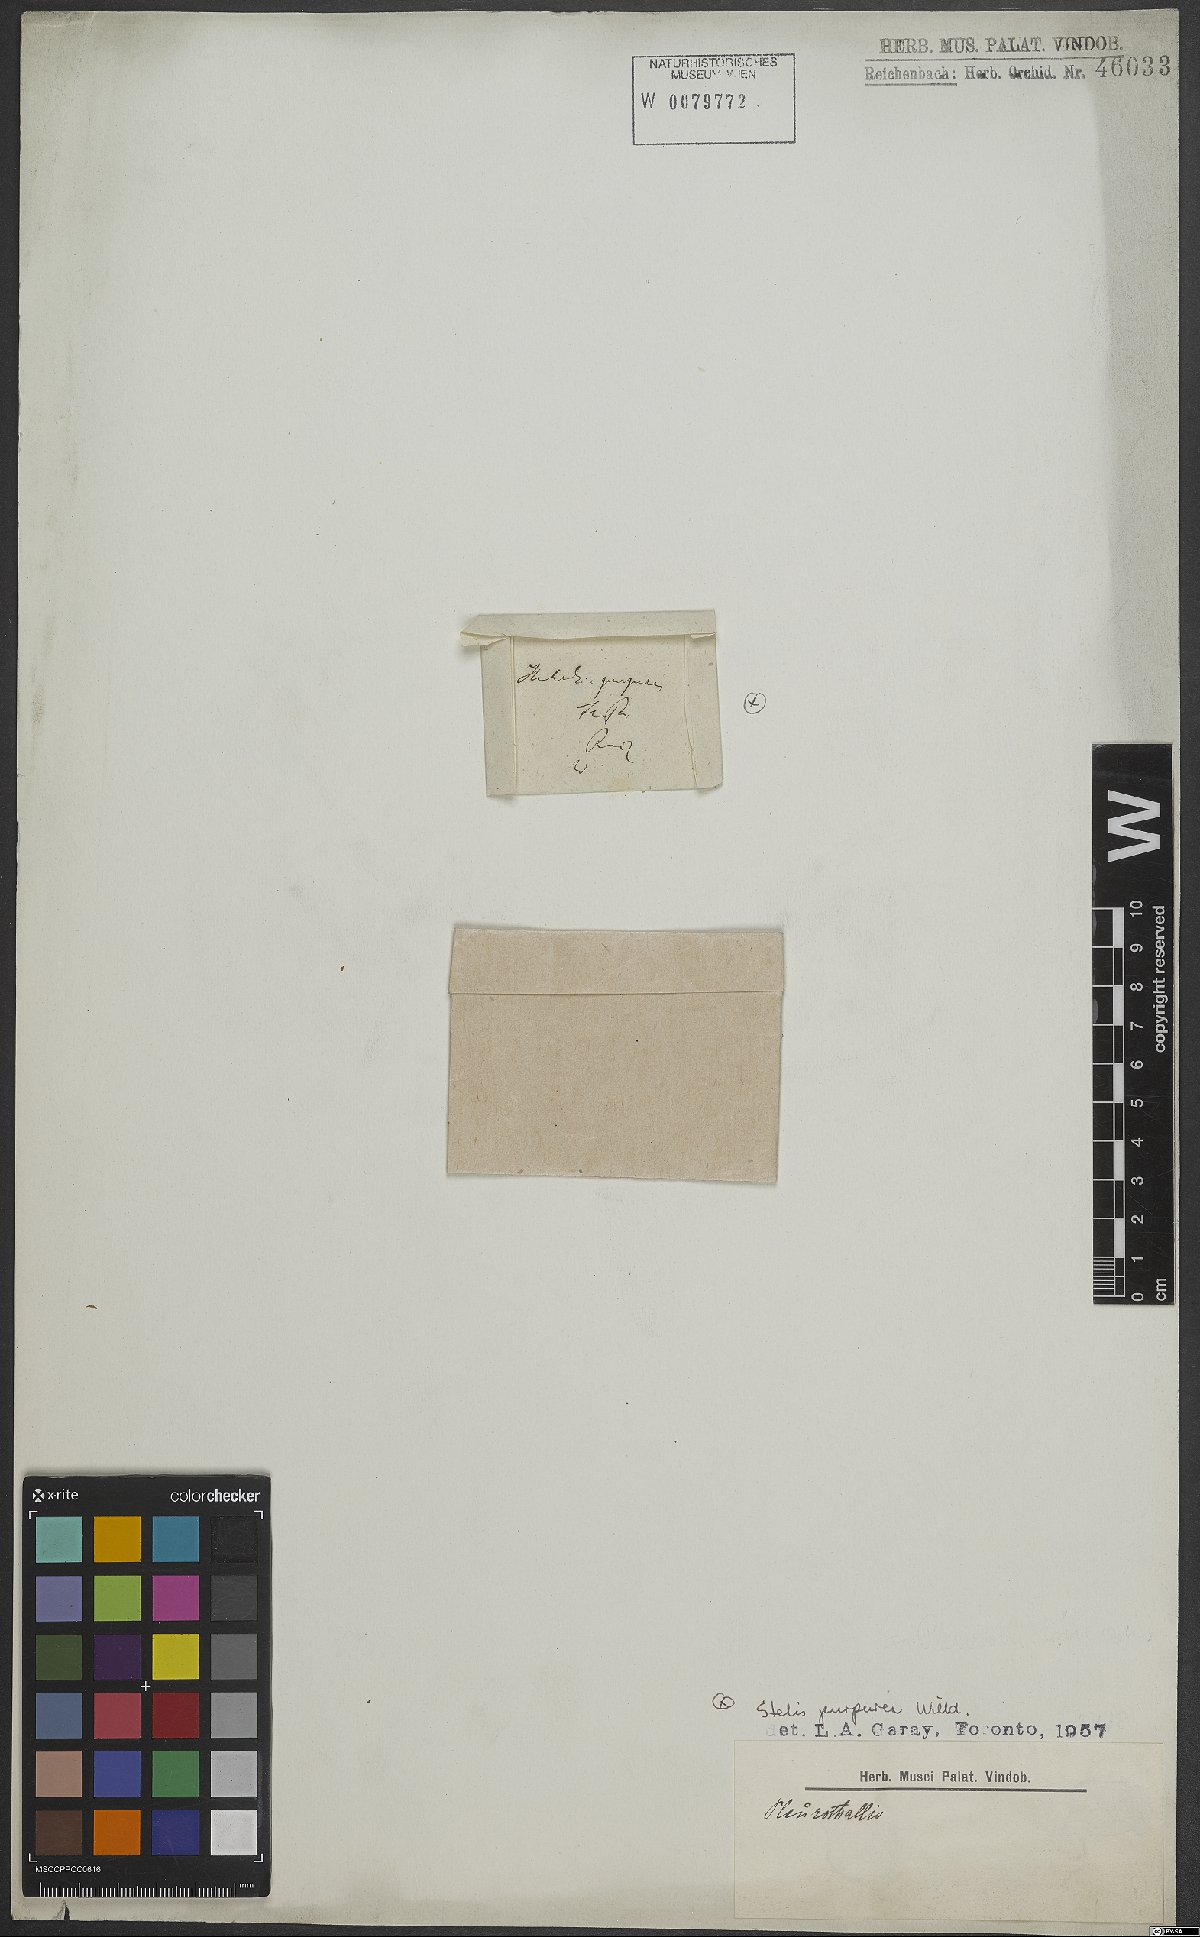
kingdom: Plantae
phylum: Tracheophyta
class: Liliopsida
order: Asparagales
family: Orchidaceae
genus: Stelis
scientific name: Stelis purpurea
